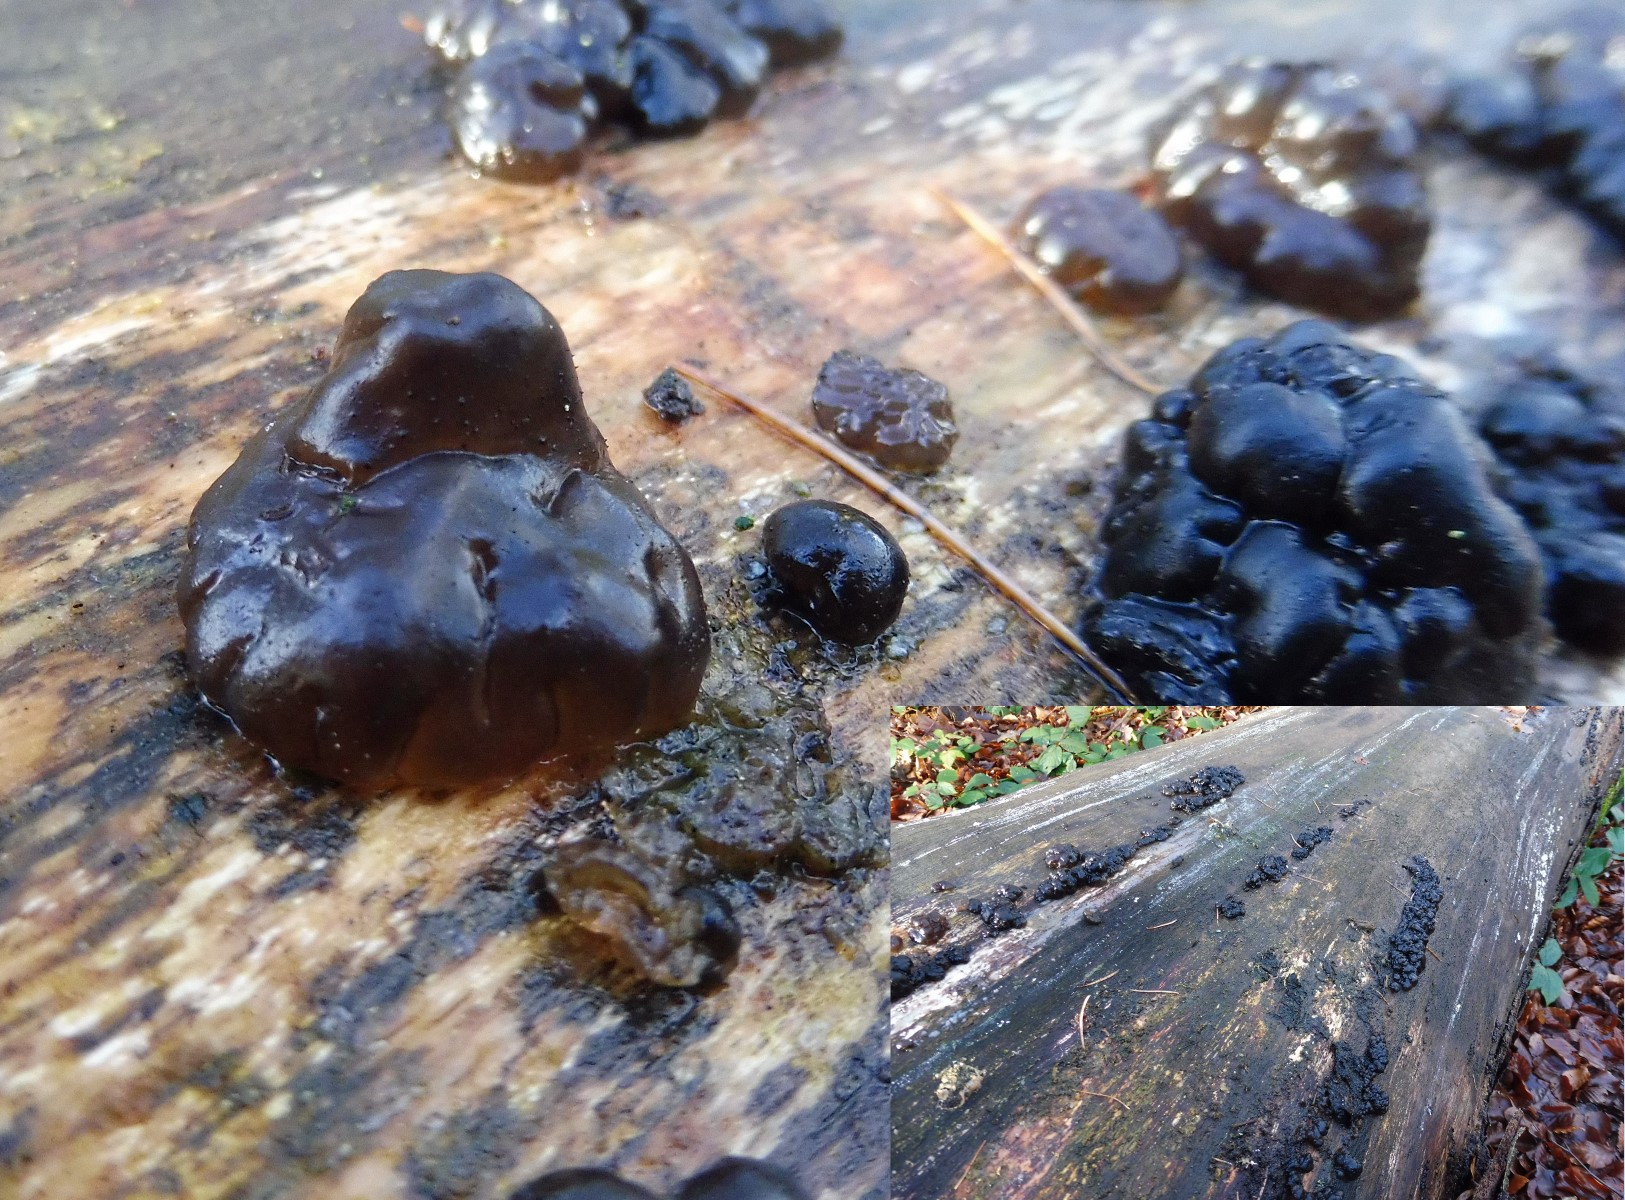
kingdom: Fungi
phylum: Basidiomycota
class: Agaricomycetes
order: Auriculariales
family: Auriculariaceae
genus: Exidia
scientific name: Exidia nigricans
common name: almindelig bævretop
